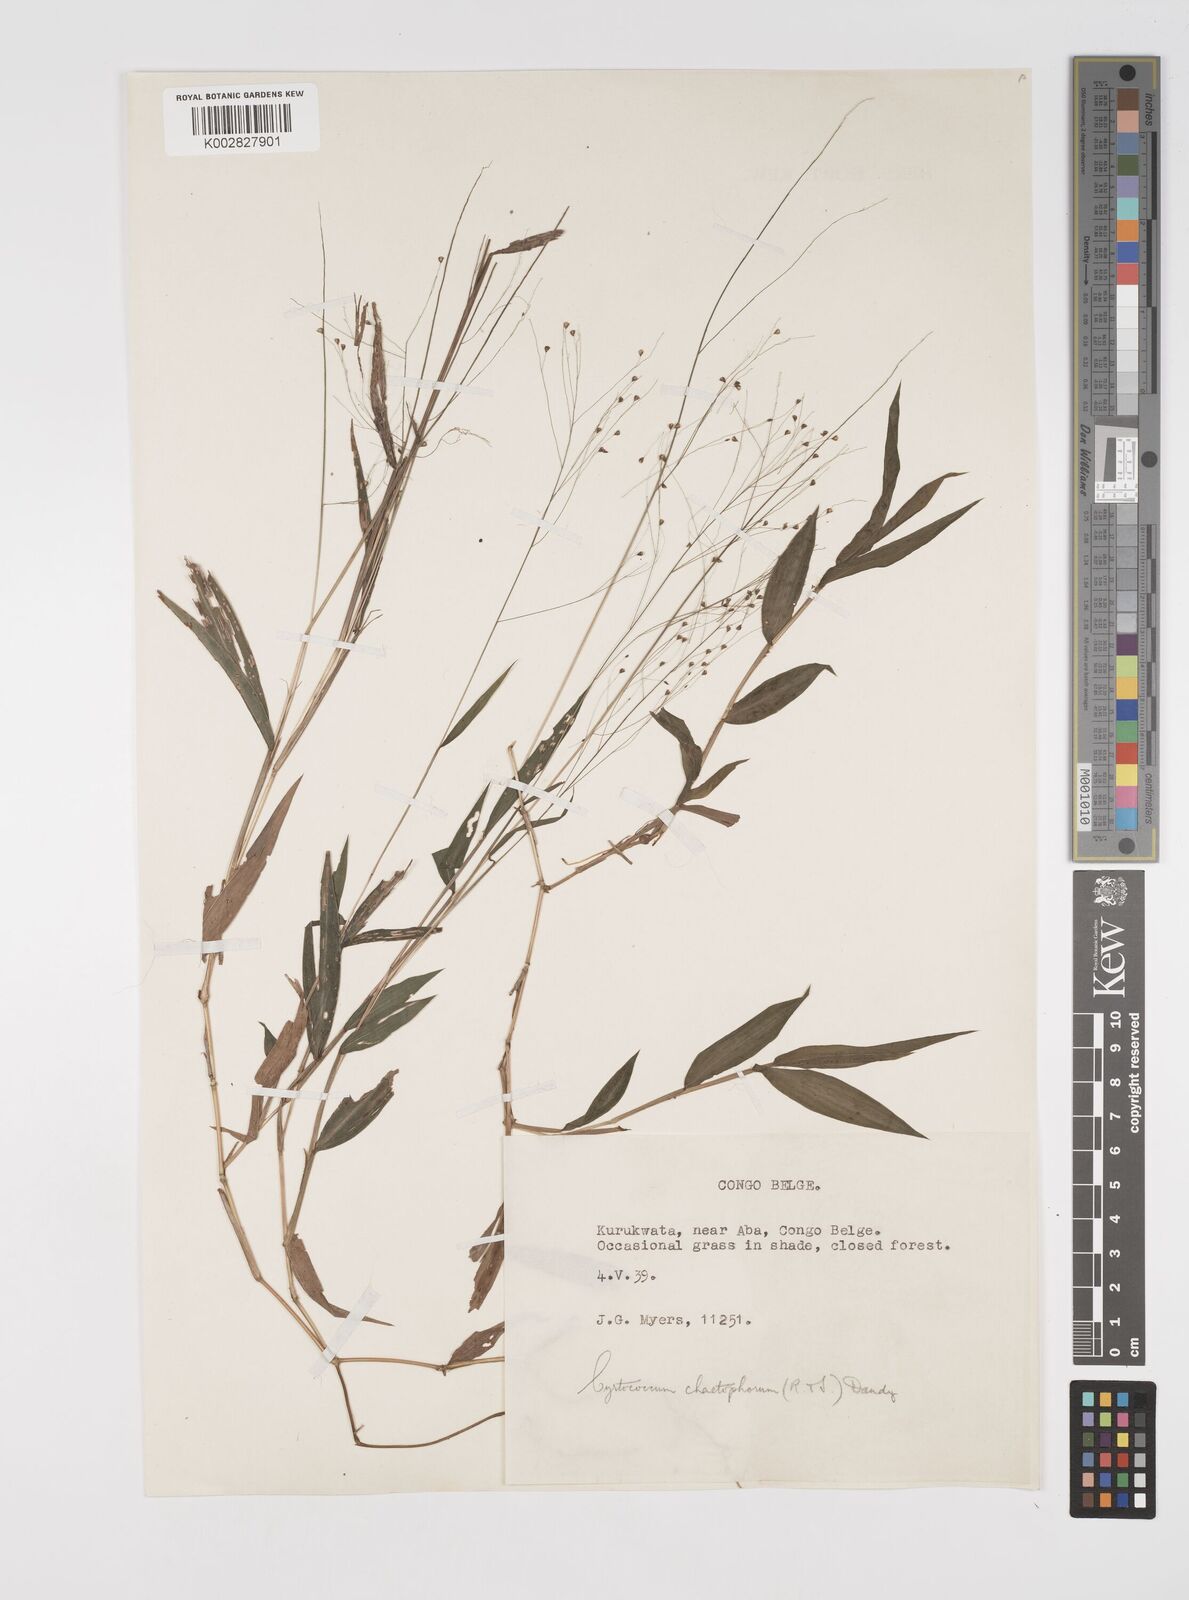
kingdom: Plantae
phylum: Tracheophyta
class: Liliopsida
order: Poales
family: Poaceae
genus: Cyrtococcum
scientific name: Cyrtococcum chaetophoron
